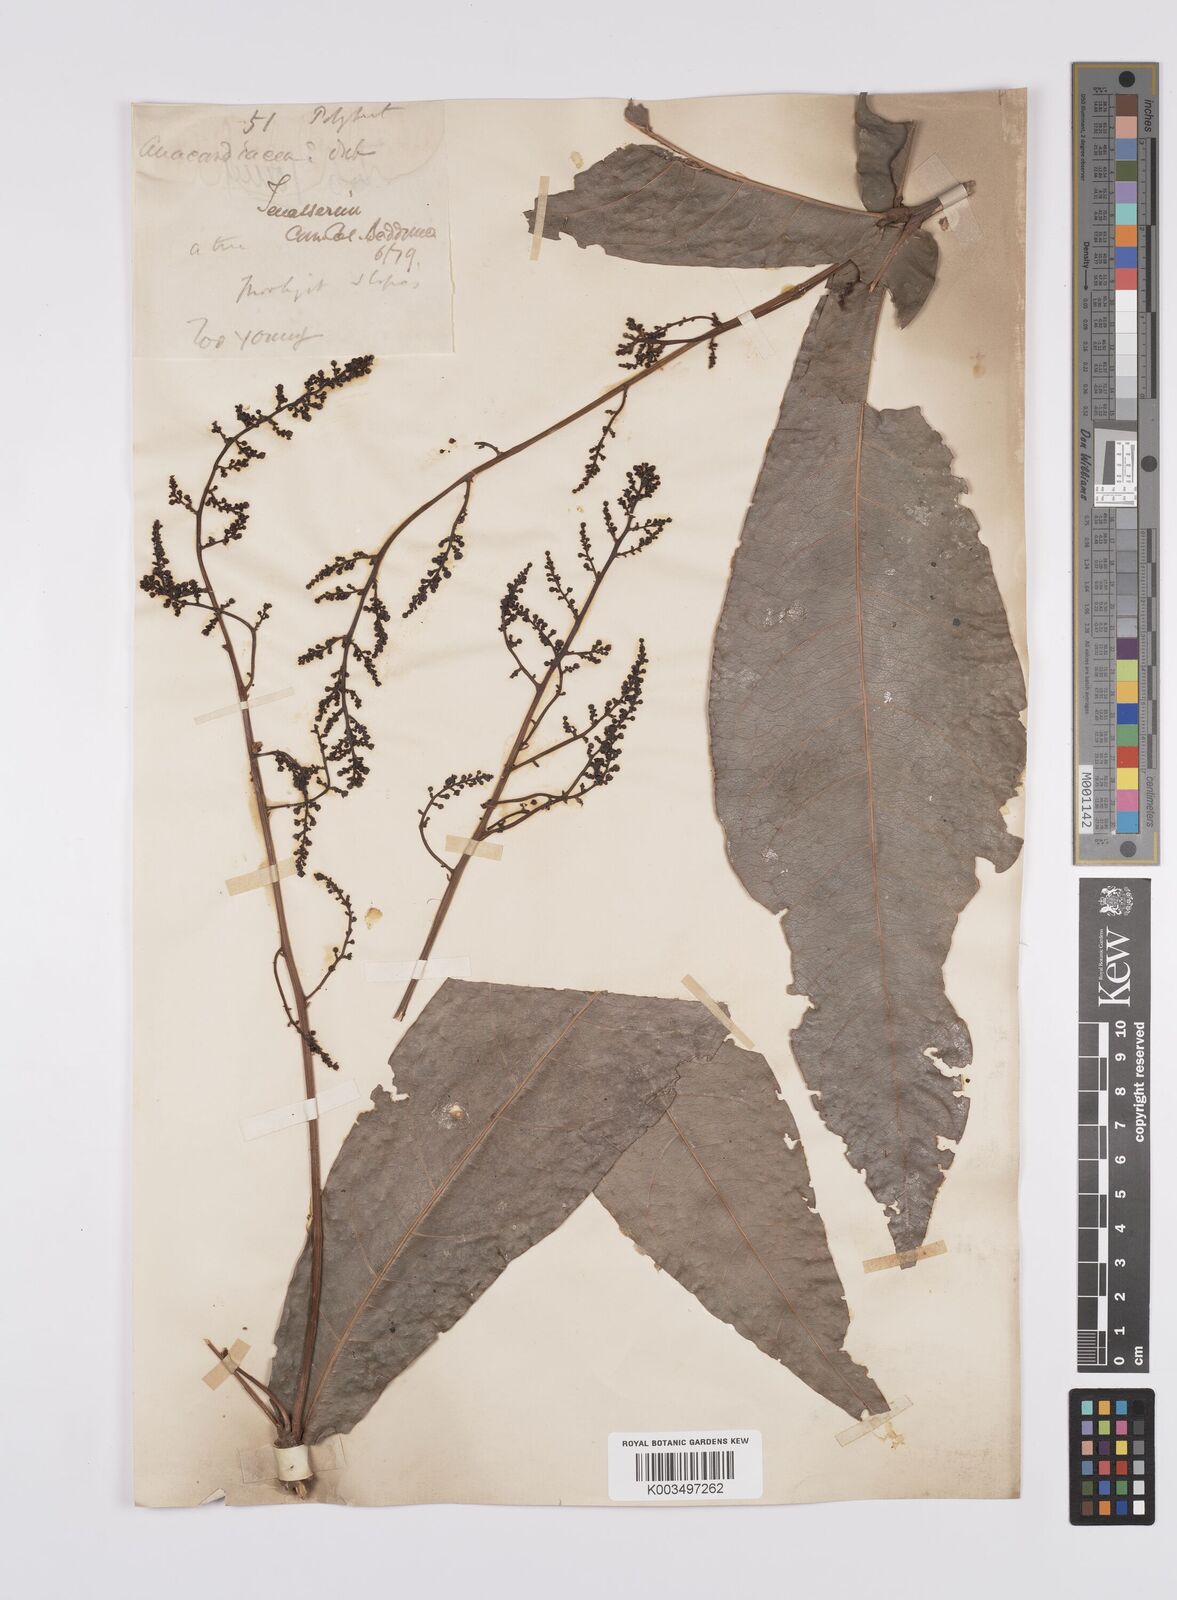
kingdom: Plantae
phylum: Tracheophyta
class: Magnoliopsida
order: Sapindales
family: Anacardiaceae
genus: Semecarpus
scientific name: Semecarpus
